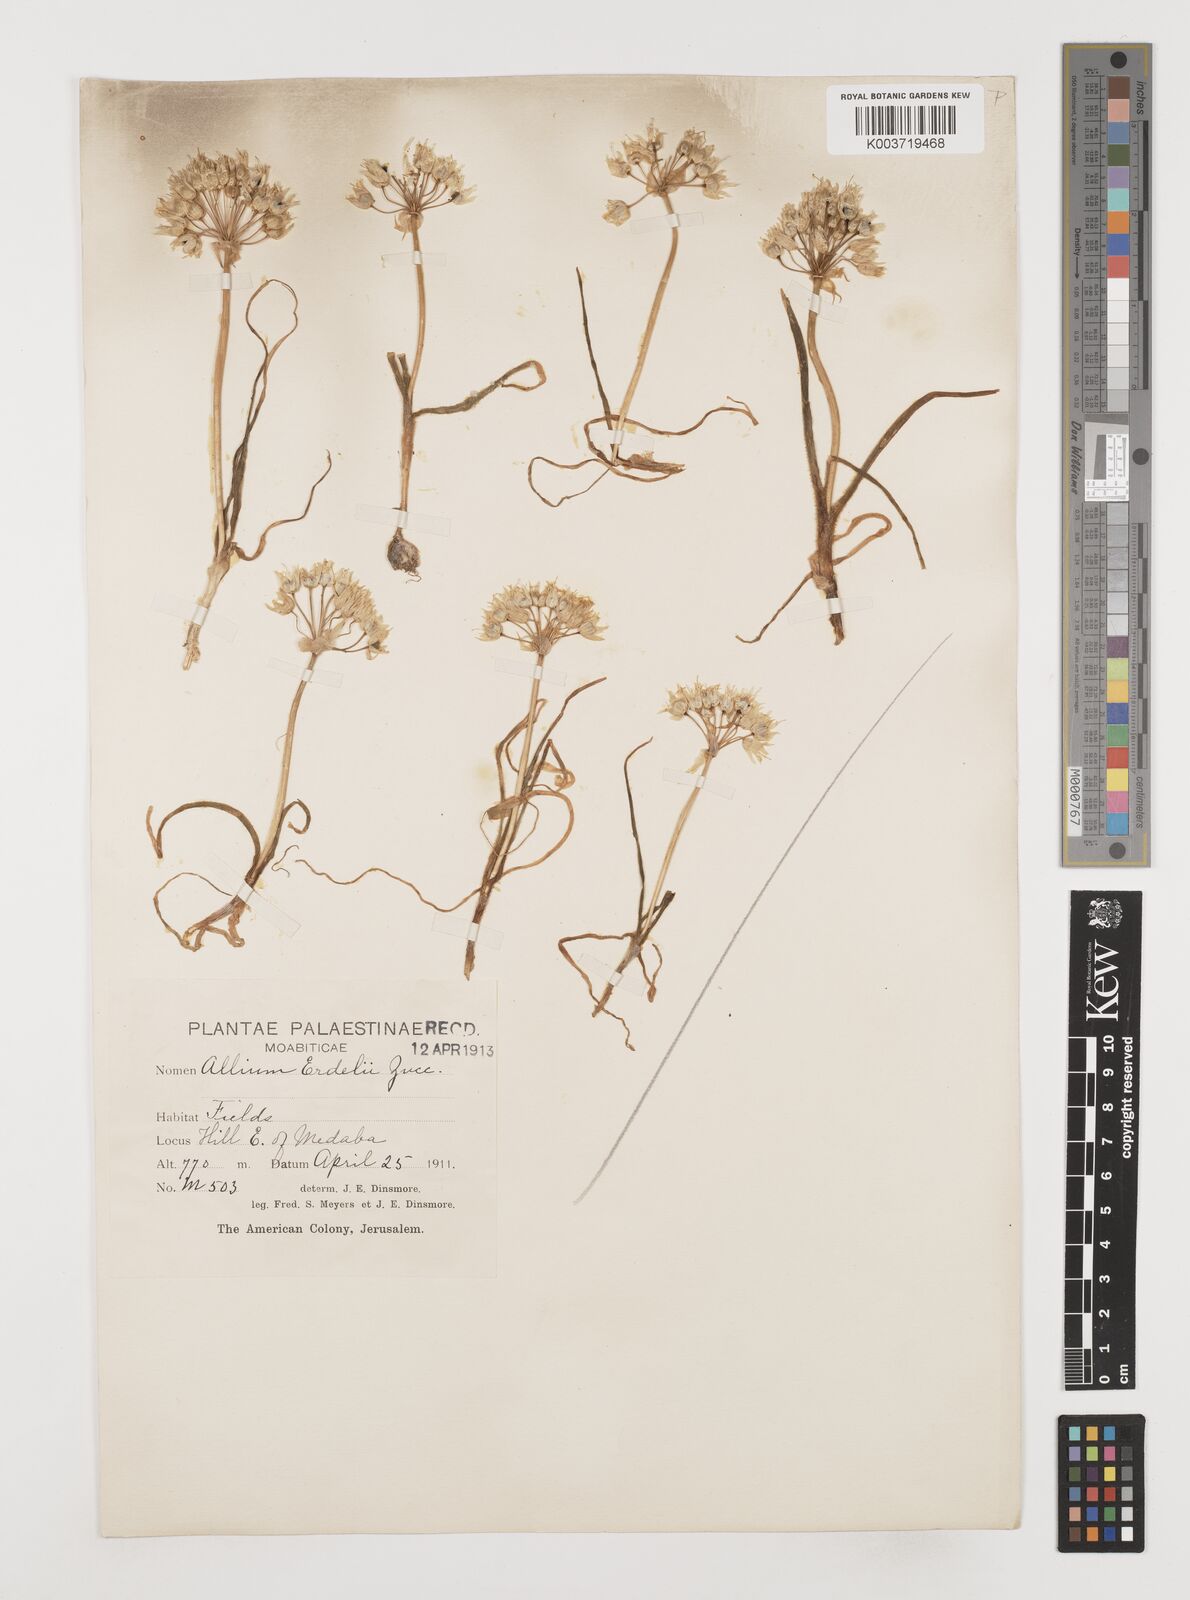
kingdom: Plantae
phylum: Tracheophyta
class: Liliopsida
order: Asparagales
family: Amaryllidaceae
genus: Allium
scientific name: Allium erdelii
